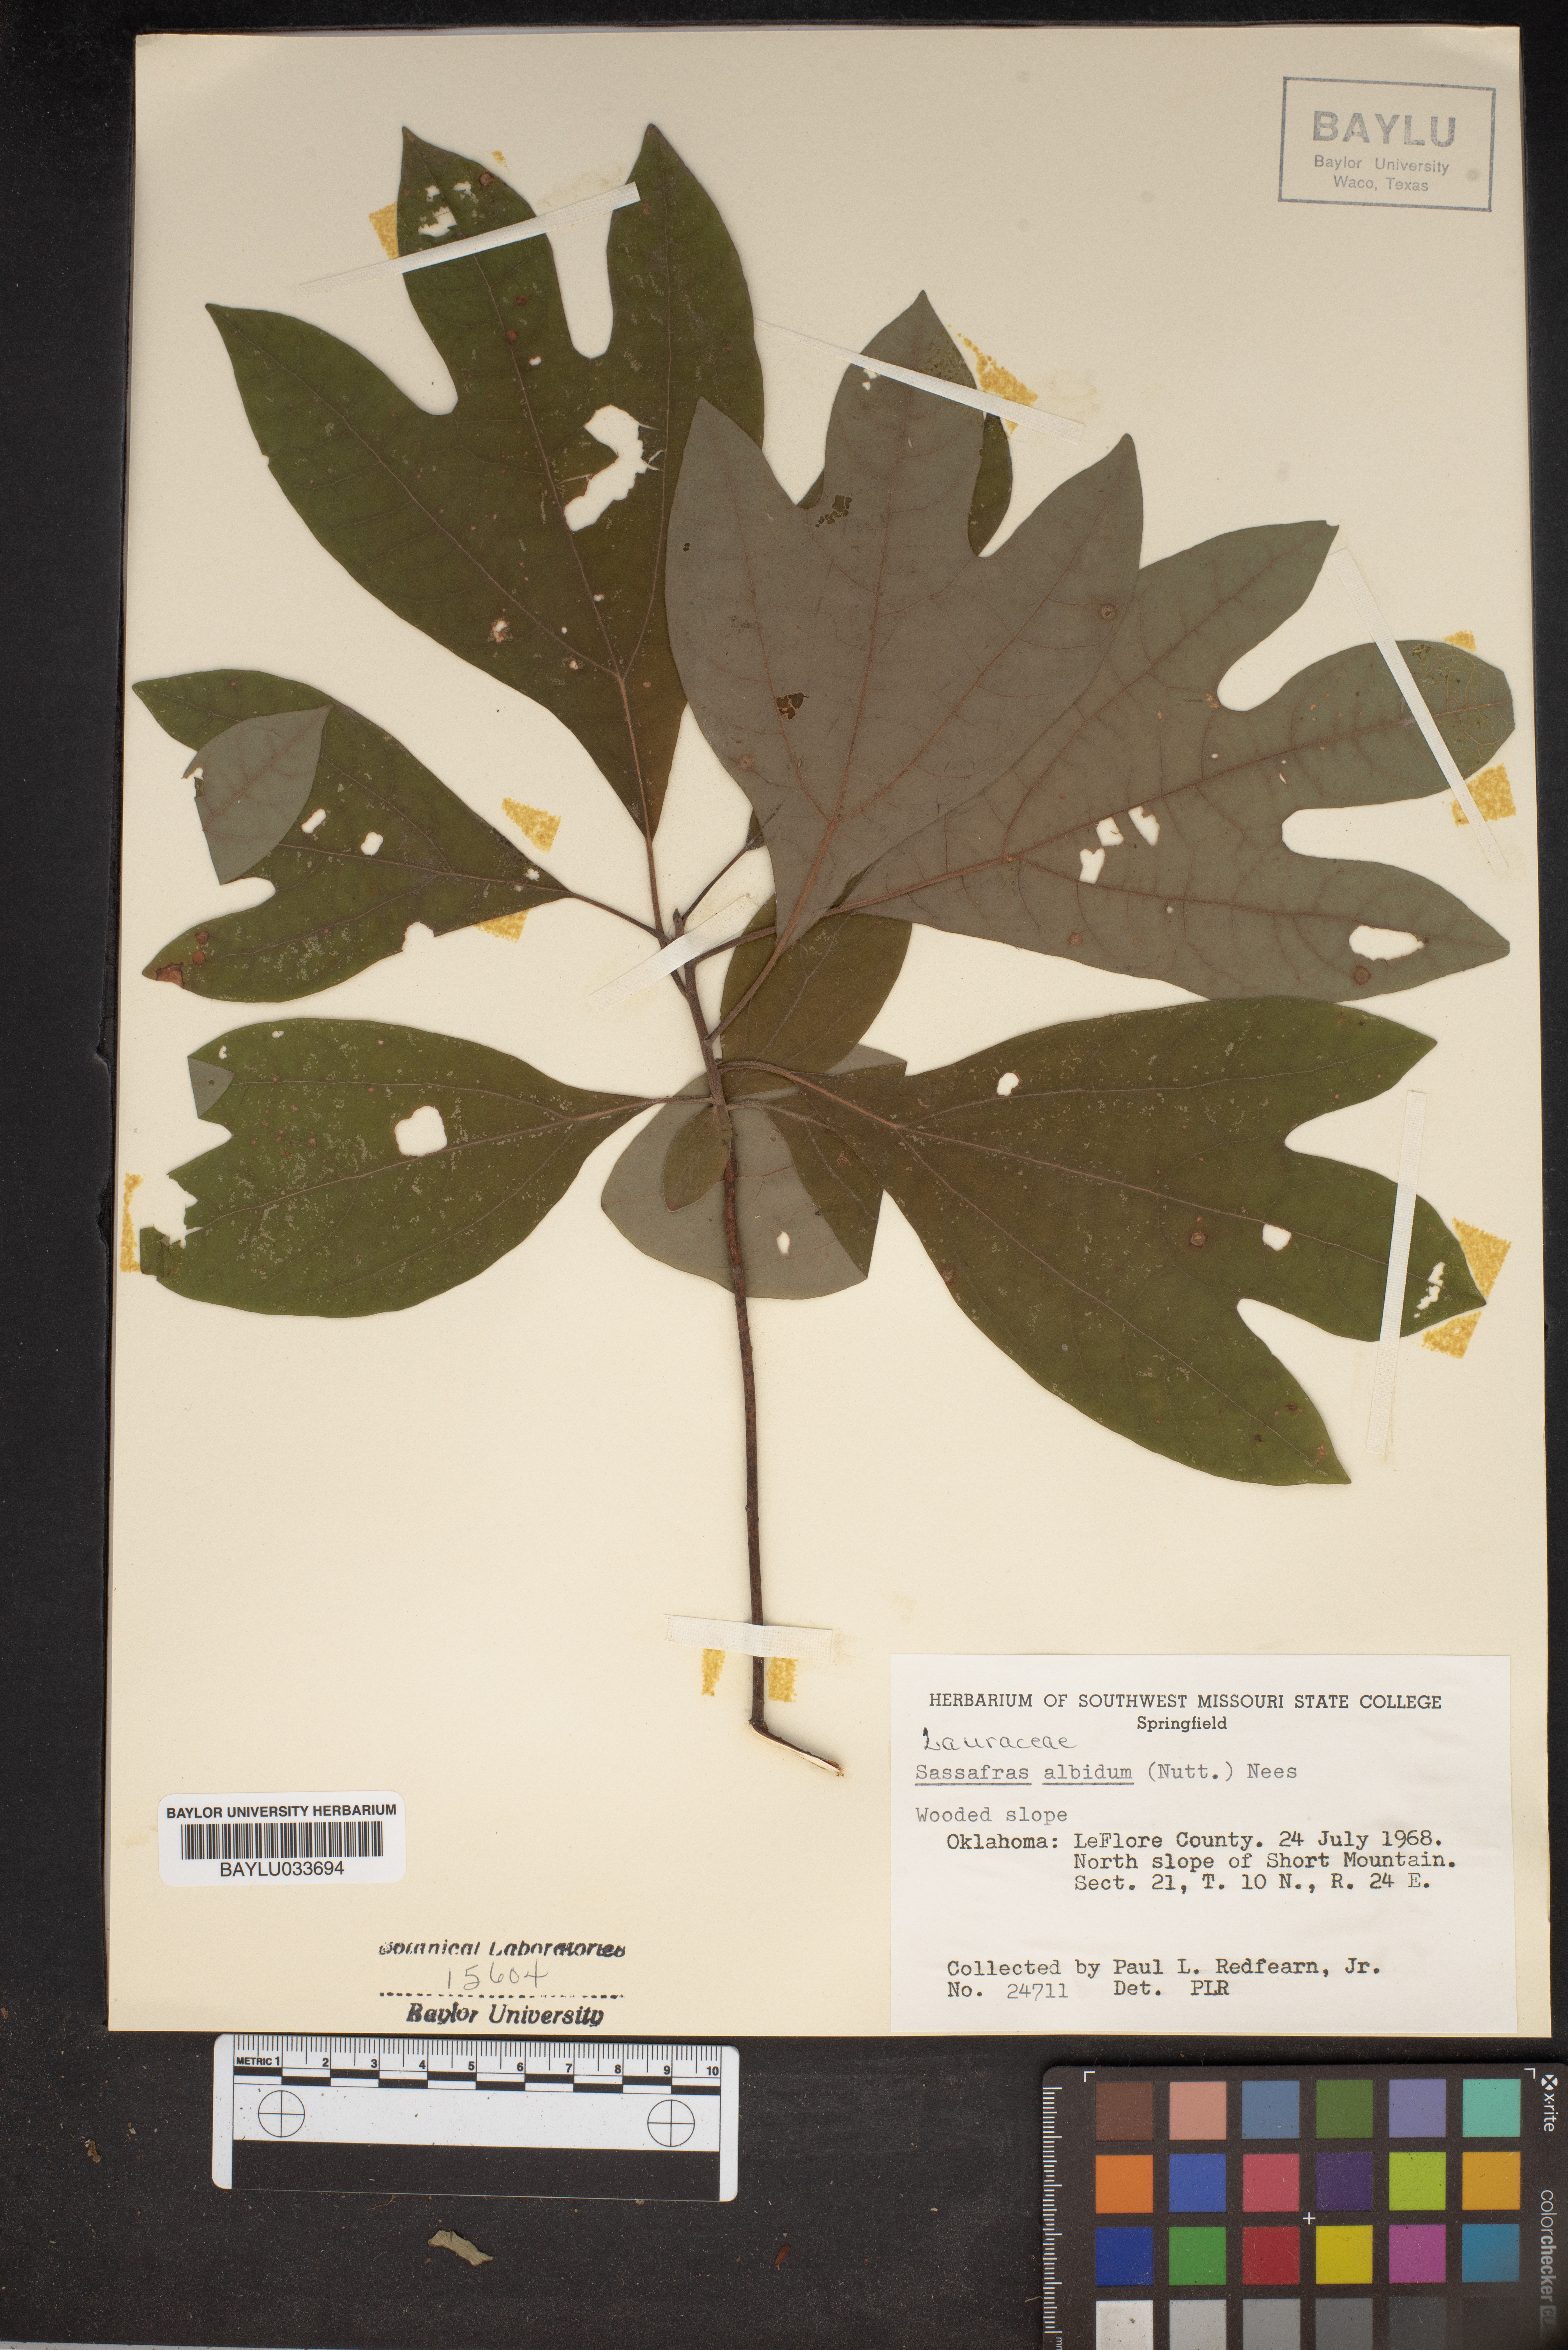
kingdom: Plantae
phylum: Tracheophyta
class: Magnoliopsida
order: Laurales
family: Lauraceae
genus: Sassafras
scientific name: Sassafras albidum
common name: Sassafras
